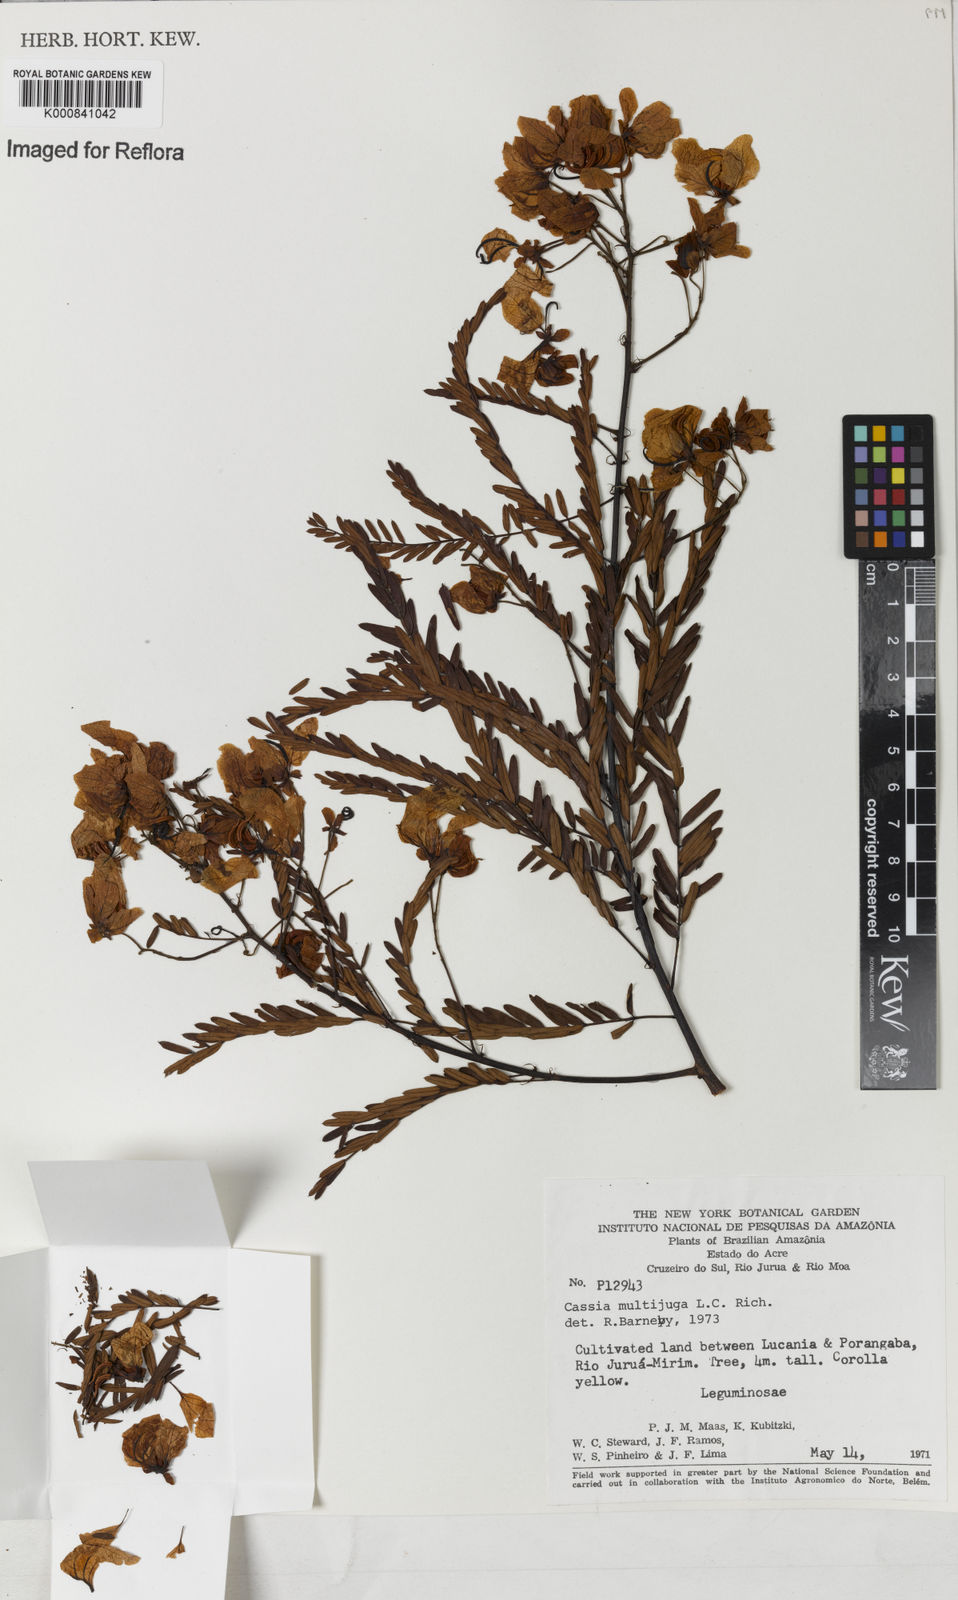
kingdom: Plantae
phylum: Tracheophyta
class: Magnoliopsida
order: Fabales
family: Fabaceae
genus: Senna
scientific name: Senna multijuga
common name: False sicklepod
